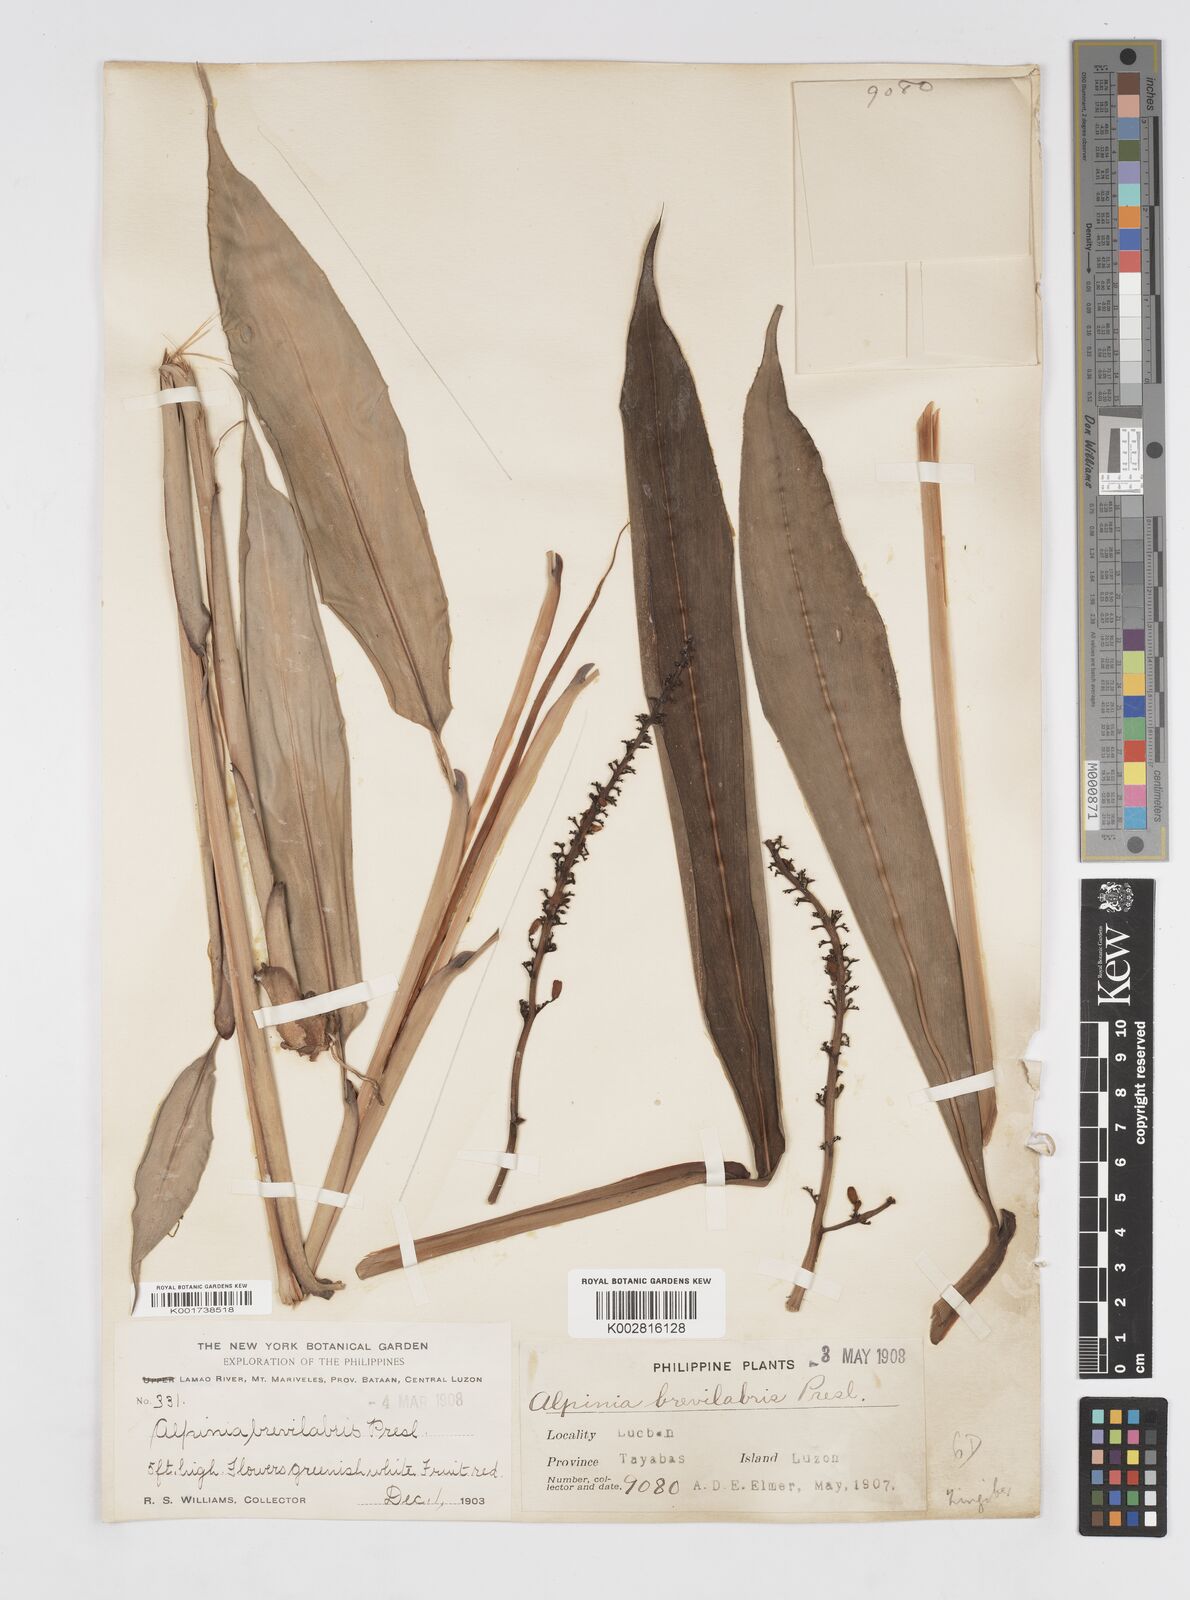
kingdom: Plantae
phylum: Tracheophyta
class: Liliopsida
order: Zingiberales
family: Zingiberaceae
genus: Alpinia
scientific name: Alpinia brevilabris
